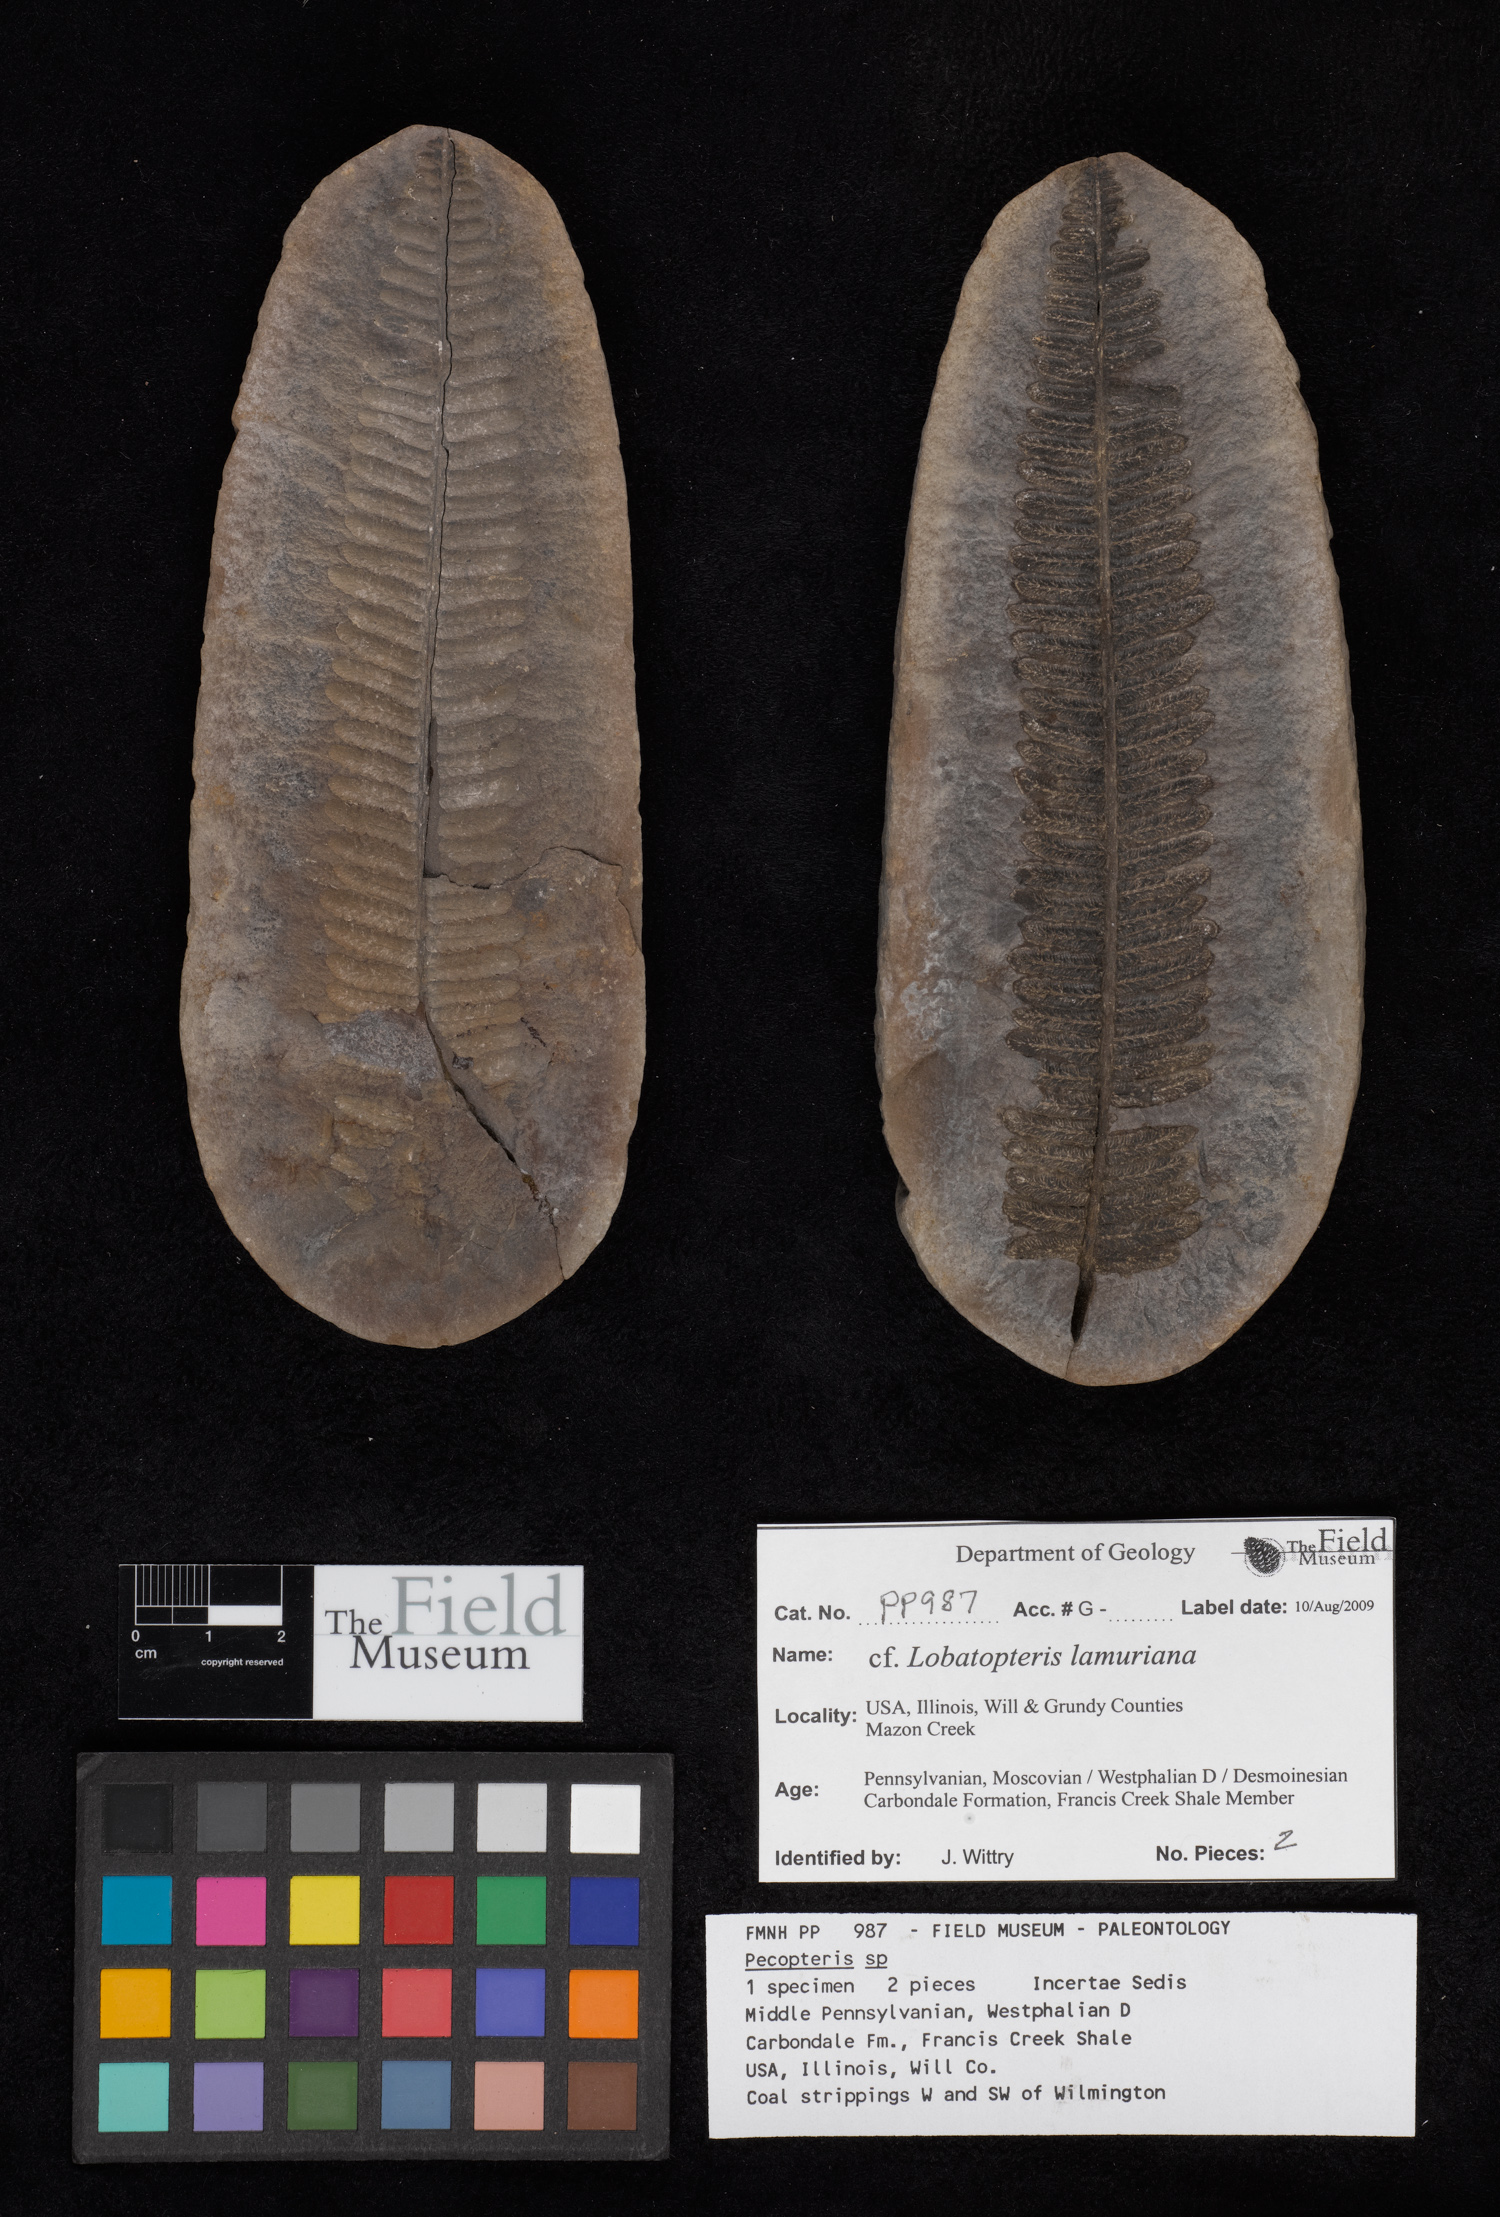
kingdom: Plantae
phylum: Tracheophyta
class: Polypodiopsida
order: Marattiales
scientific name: Marattiales
